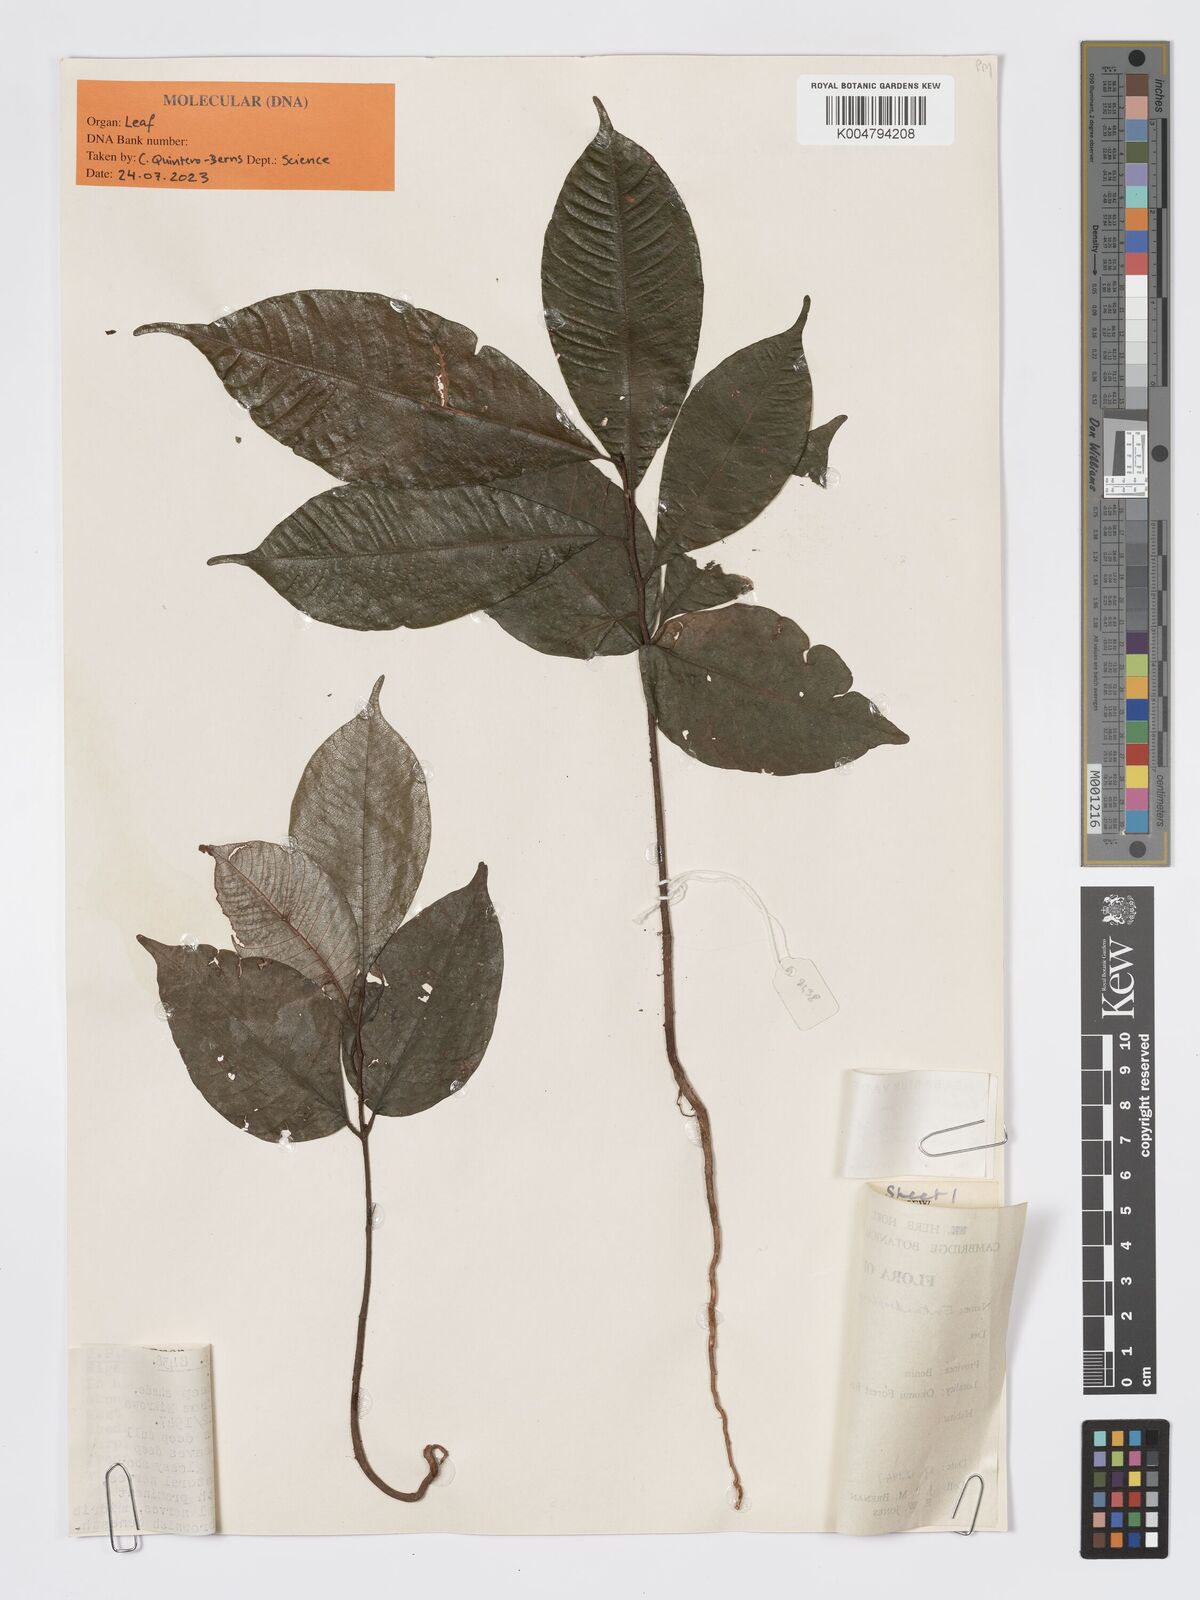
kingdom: Plantae
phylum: Tracheophyta
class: Magnoliopsida
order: Sapindales
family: Meliaceae
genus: Entandrophragma
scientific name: Entandrophragma candollei
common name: Cedar kokoti
